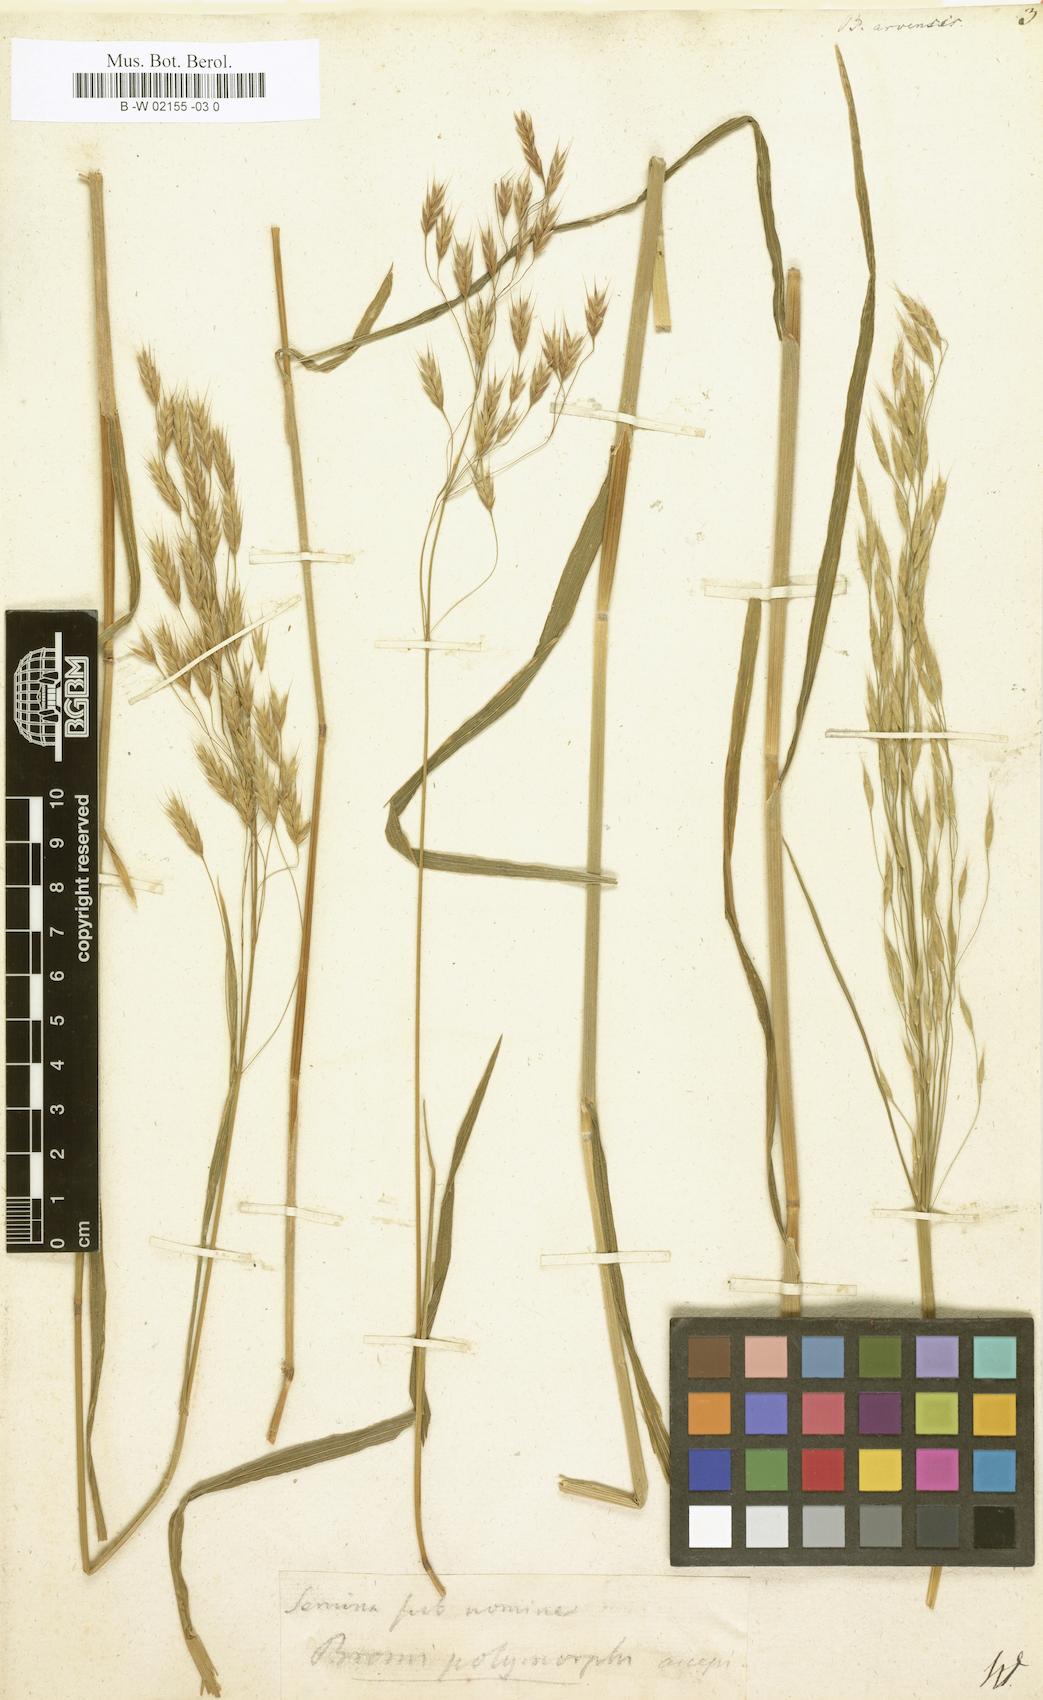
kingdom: Plantae
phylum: Tracheophyta
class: Liliopsida
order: Poales
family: Poaceae
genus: Bromus
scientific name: Bromus arvensis
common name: Field brome
